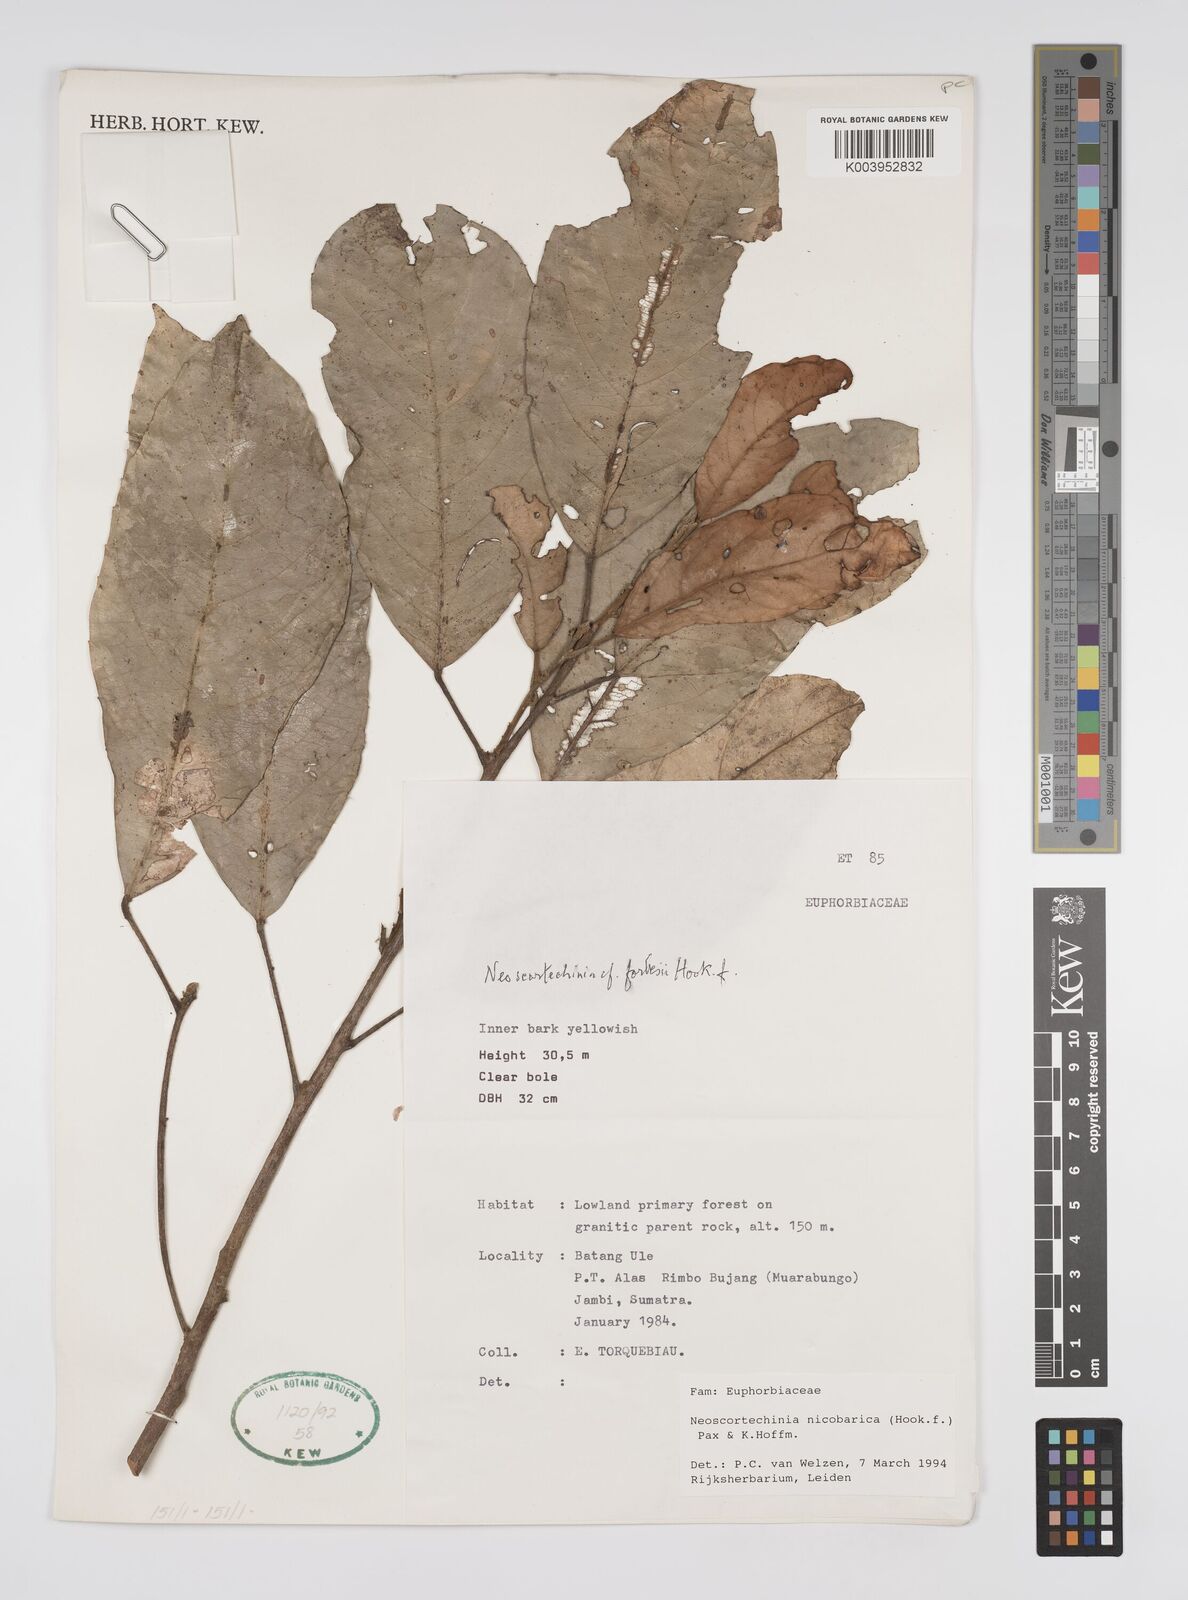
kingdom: Plantae
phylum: Tracheophyta
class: Magnoliopsida
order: Malpighiales
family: Euphorbiaceae
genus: Neoscortechinia
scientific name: Neoscortechinia nicobarica
